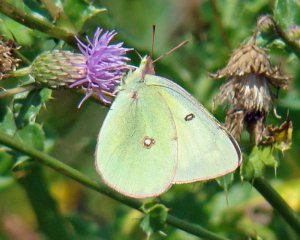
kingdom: Animalia
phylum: Arthropoda
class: Insecta
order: Lepidoptera
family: Pieridae
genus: Colias
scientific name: Colias philodice
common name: Clouded Sulphur
